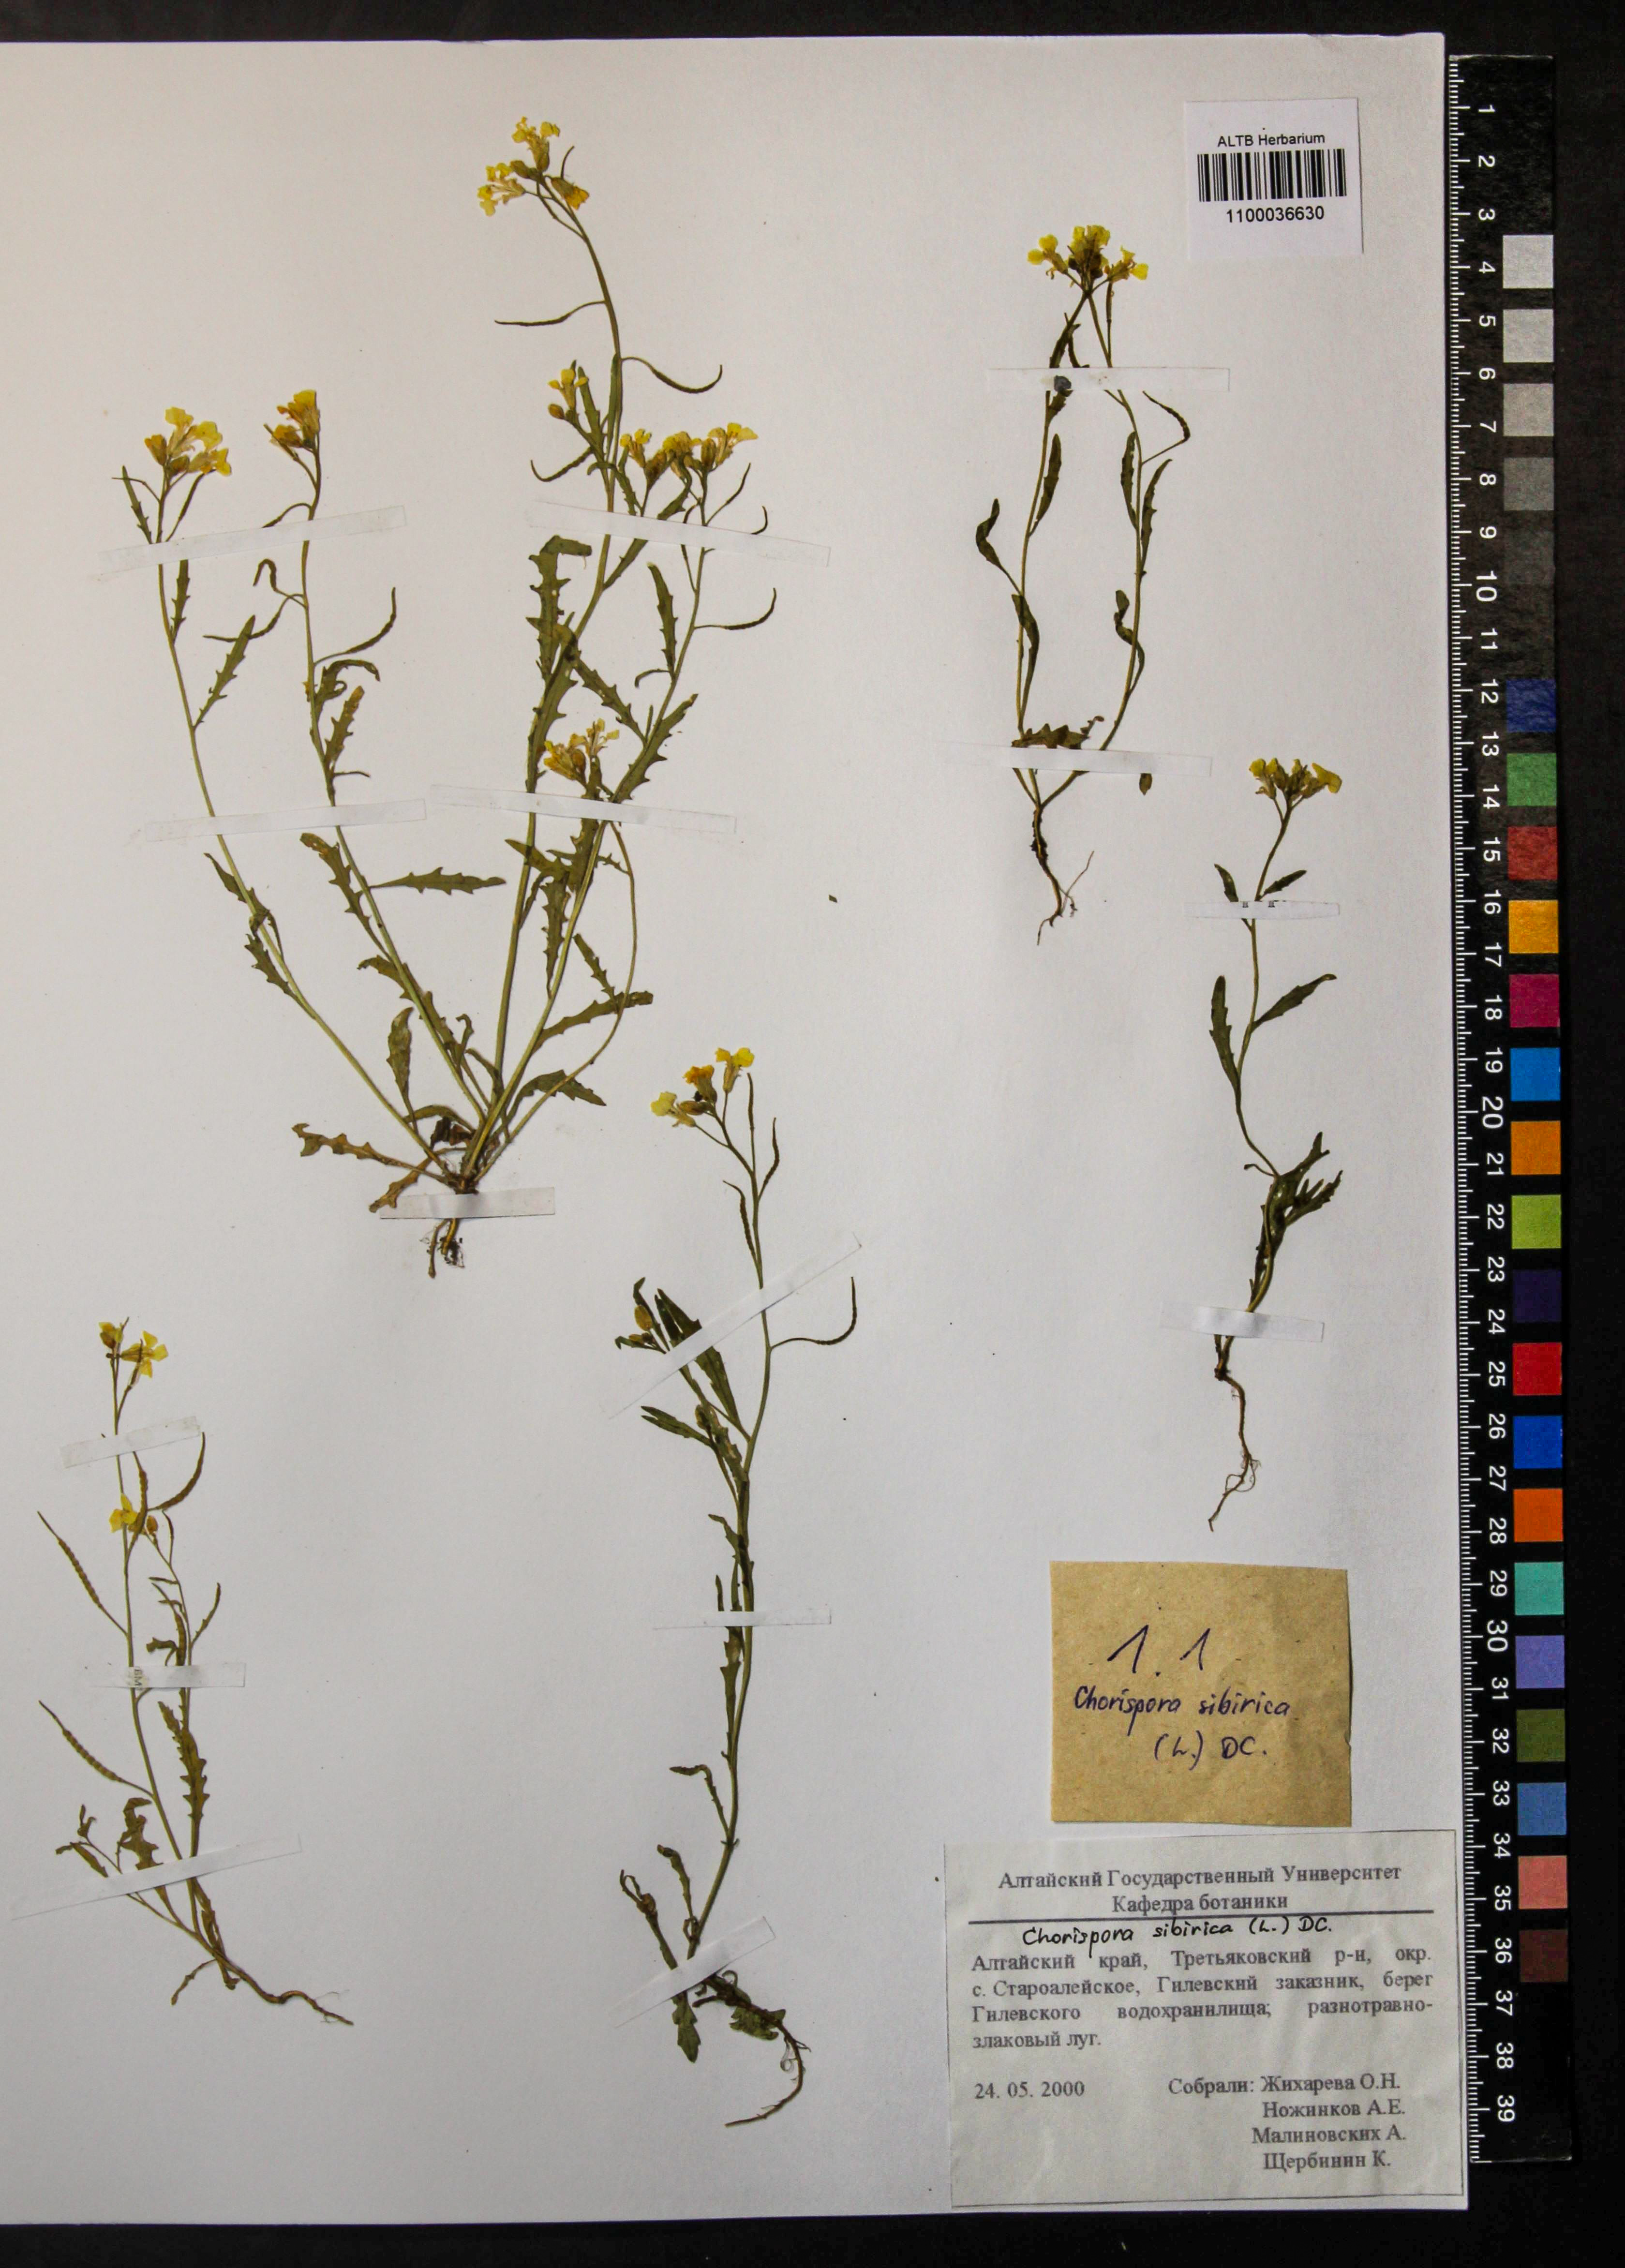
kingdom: Plantae
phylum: Tracheophyta
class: Magnoliopsida
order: Brassicales
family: Brassicaceae
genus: Chorispora
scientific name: Chorispora sibirica
